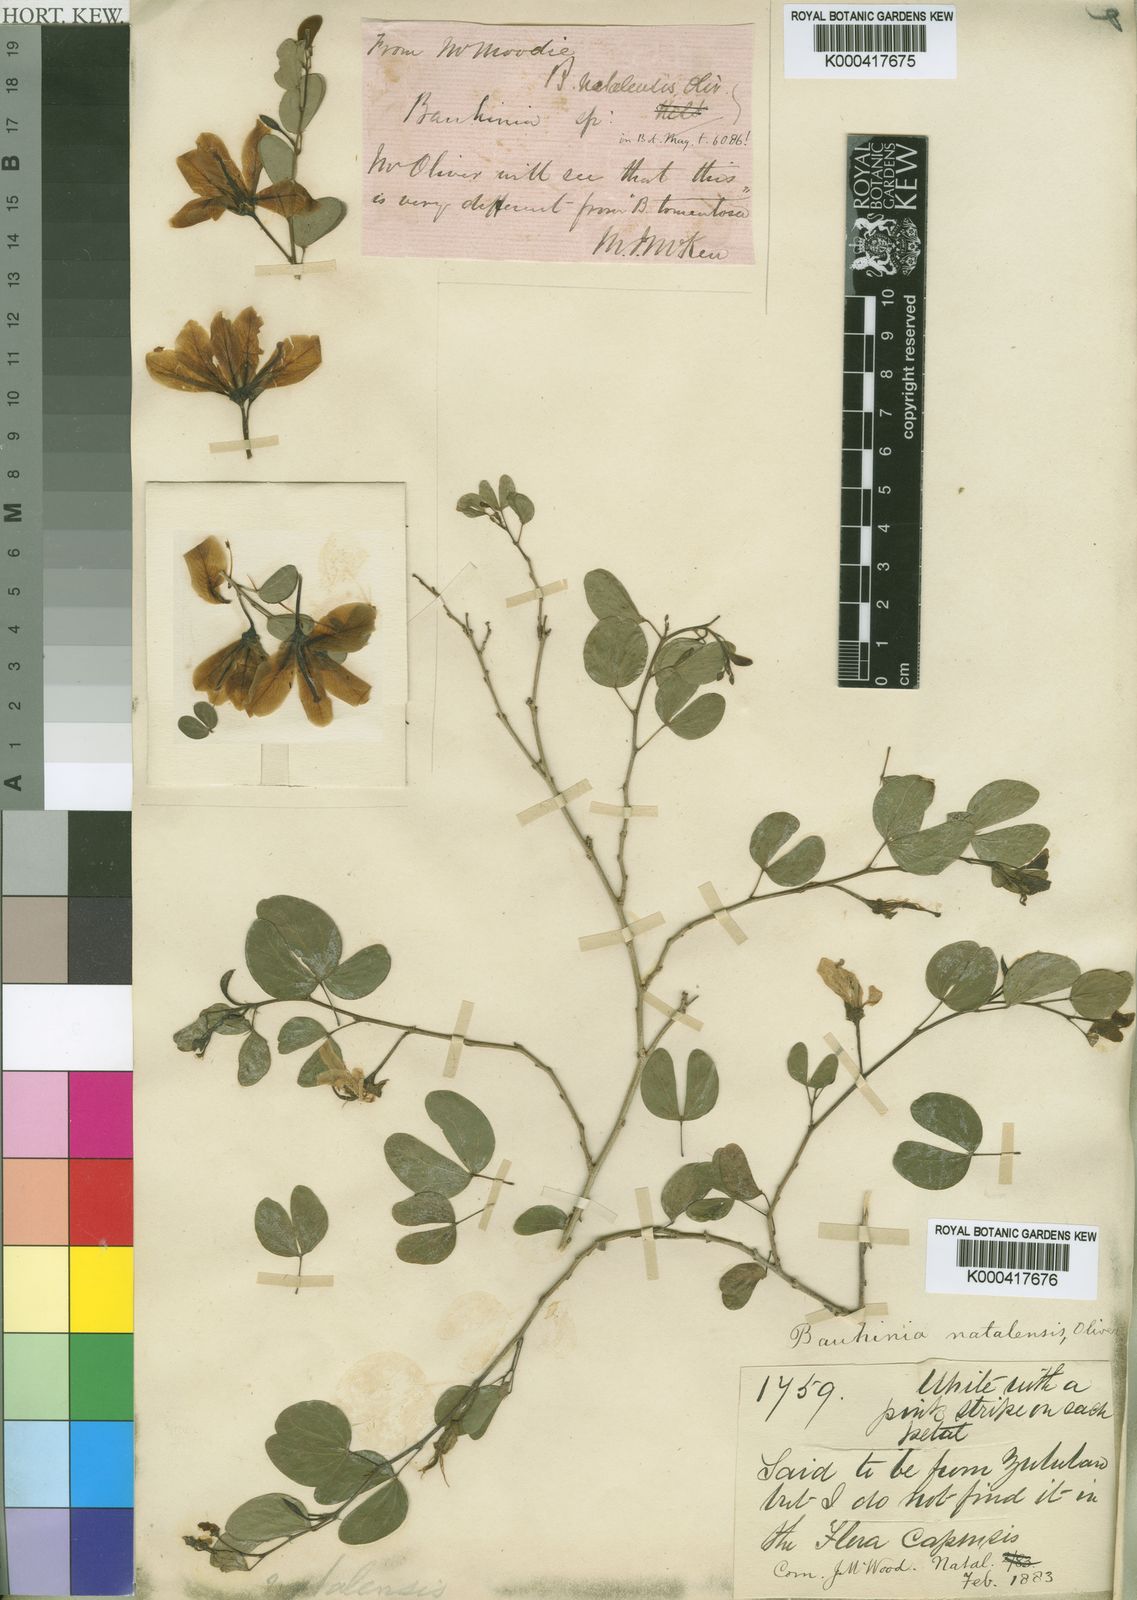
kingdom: Plantae
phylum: Tracheophyta
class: Magnoliopsida
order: Fabales
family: Fabaceae
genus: Bauhinia
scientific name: Bauhinia
